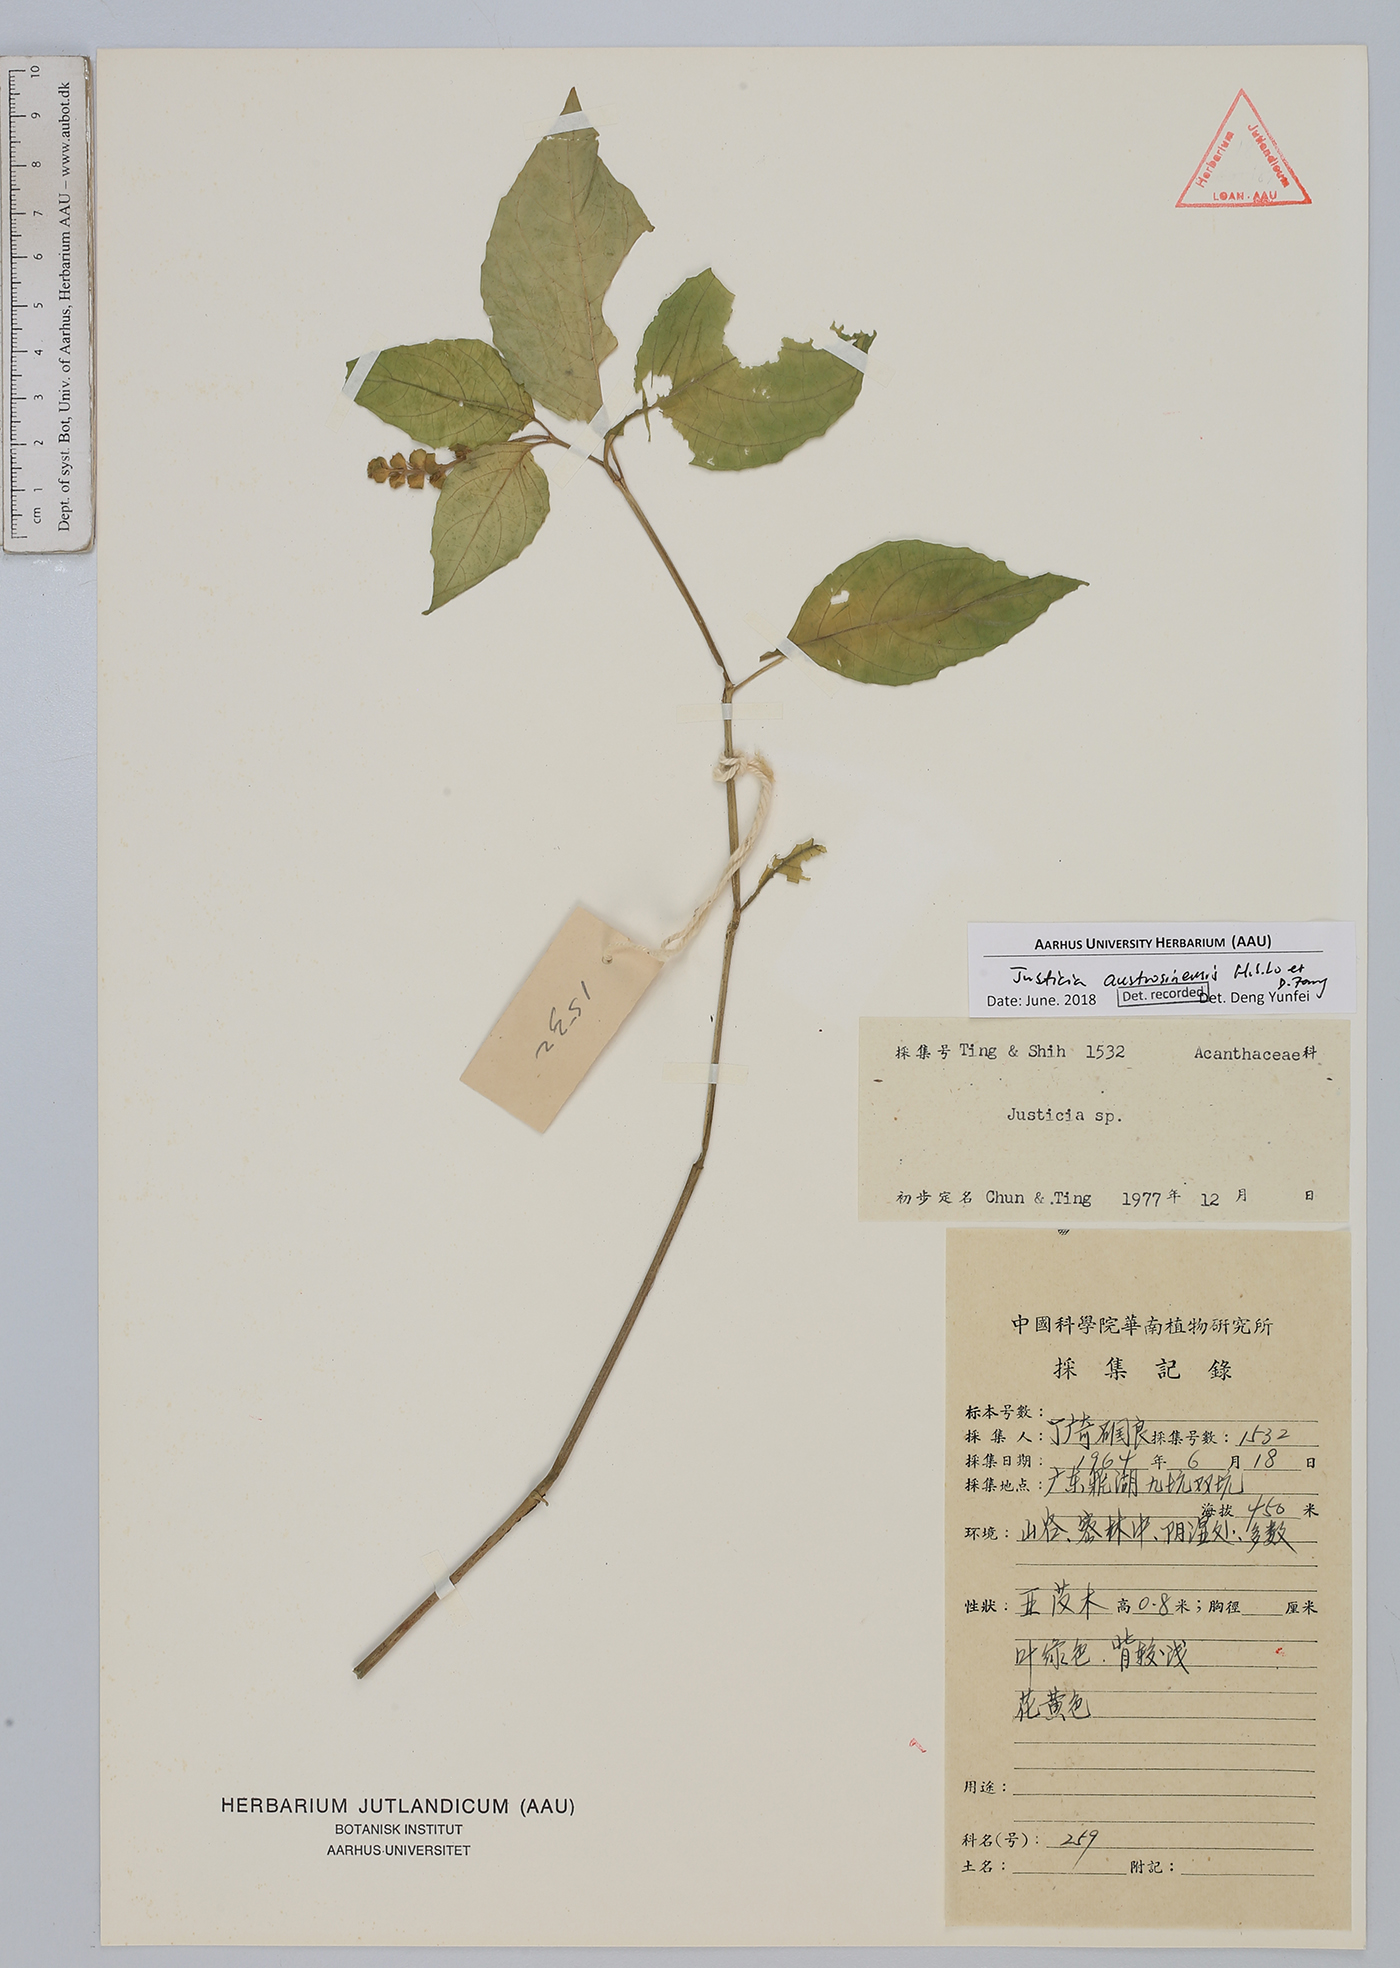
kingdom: Plantae
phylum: Tracheophyta
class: Magnoliopsida
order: Lamiales
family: Acanthaceae
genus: Justicia
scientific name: Justicia austrosinensis
